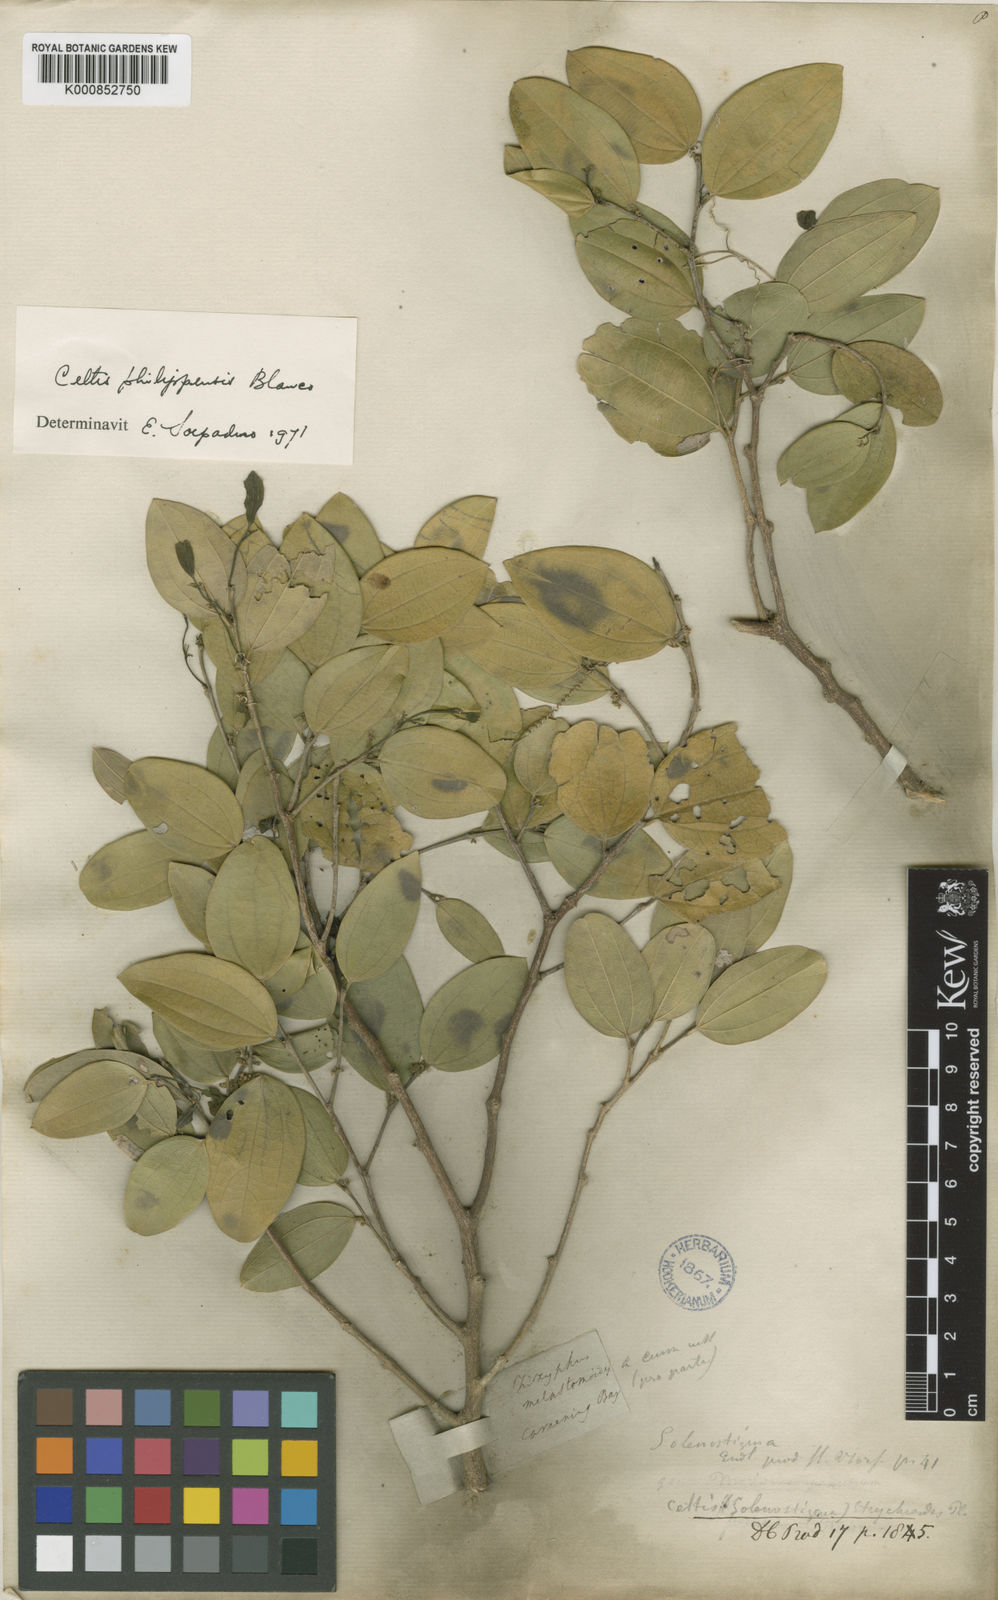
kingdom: Plantae
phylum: Tracheophyta
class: Magnoliopsida
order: Rosales
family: Cannabaceae
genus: Celtis
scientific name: Celtis philippensis
